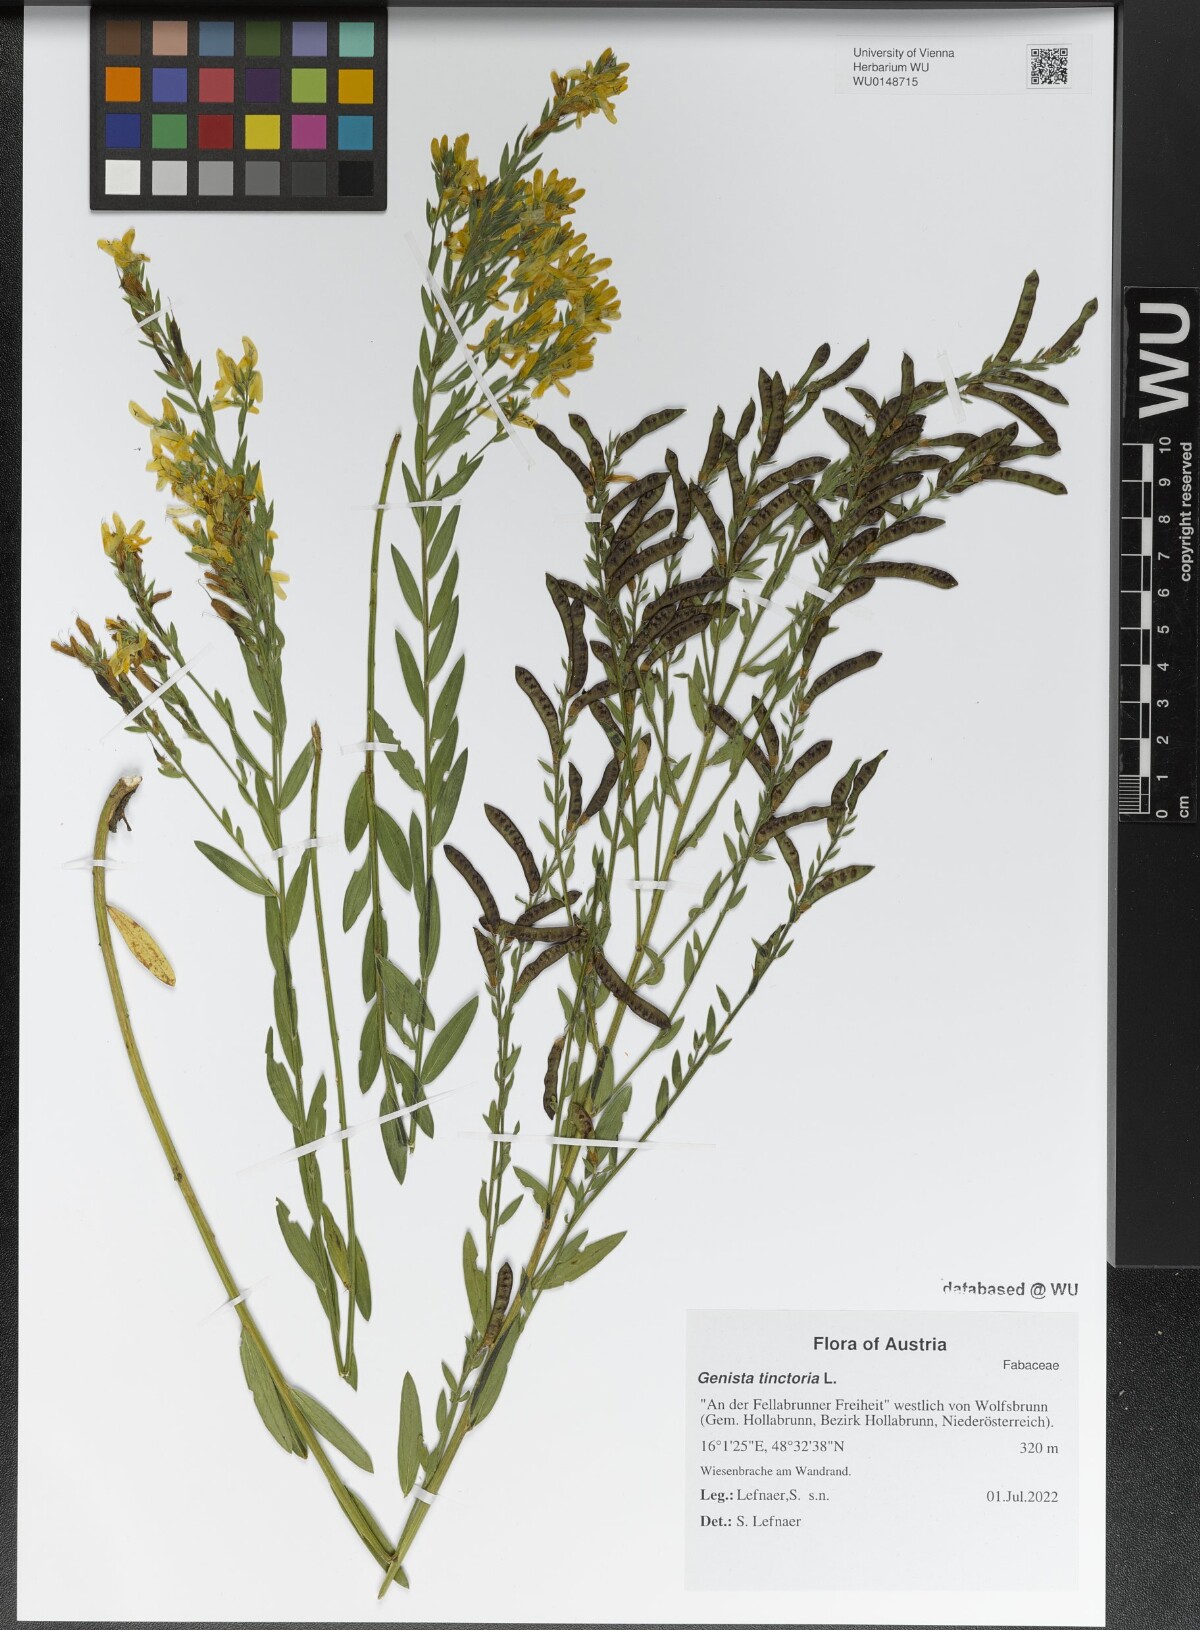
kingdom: Plantae
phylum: Tracheophyta
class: Magnoliopsida
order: Fabales
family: Fabaceae
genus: Genista
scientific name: Genista tinctoria
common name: Dyer's greenweed
